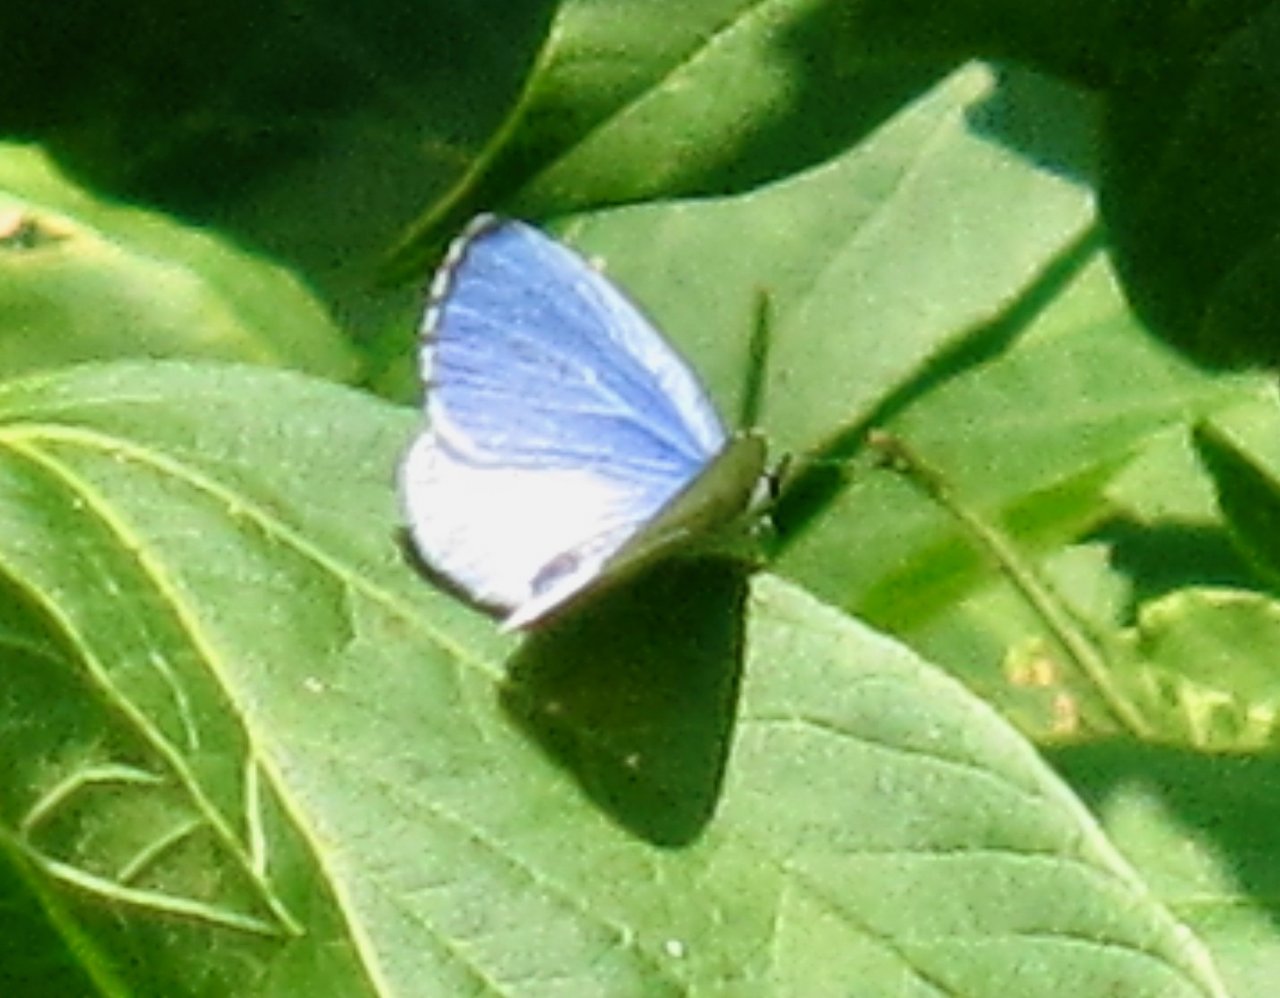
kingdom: Animalia
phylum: Arthropoda
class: Insecta
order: Lepidoptera
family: Lycaenidae
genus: Cyaniris
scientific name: Cyaniris neglecta
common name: Summer Azure
